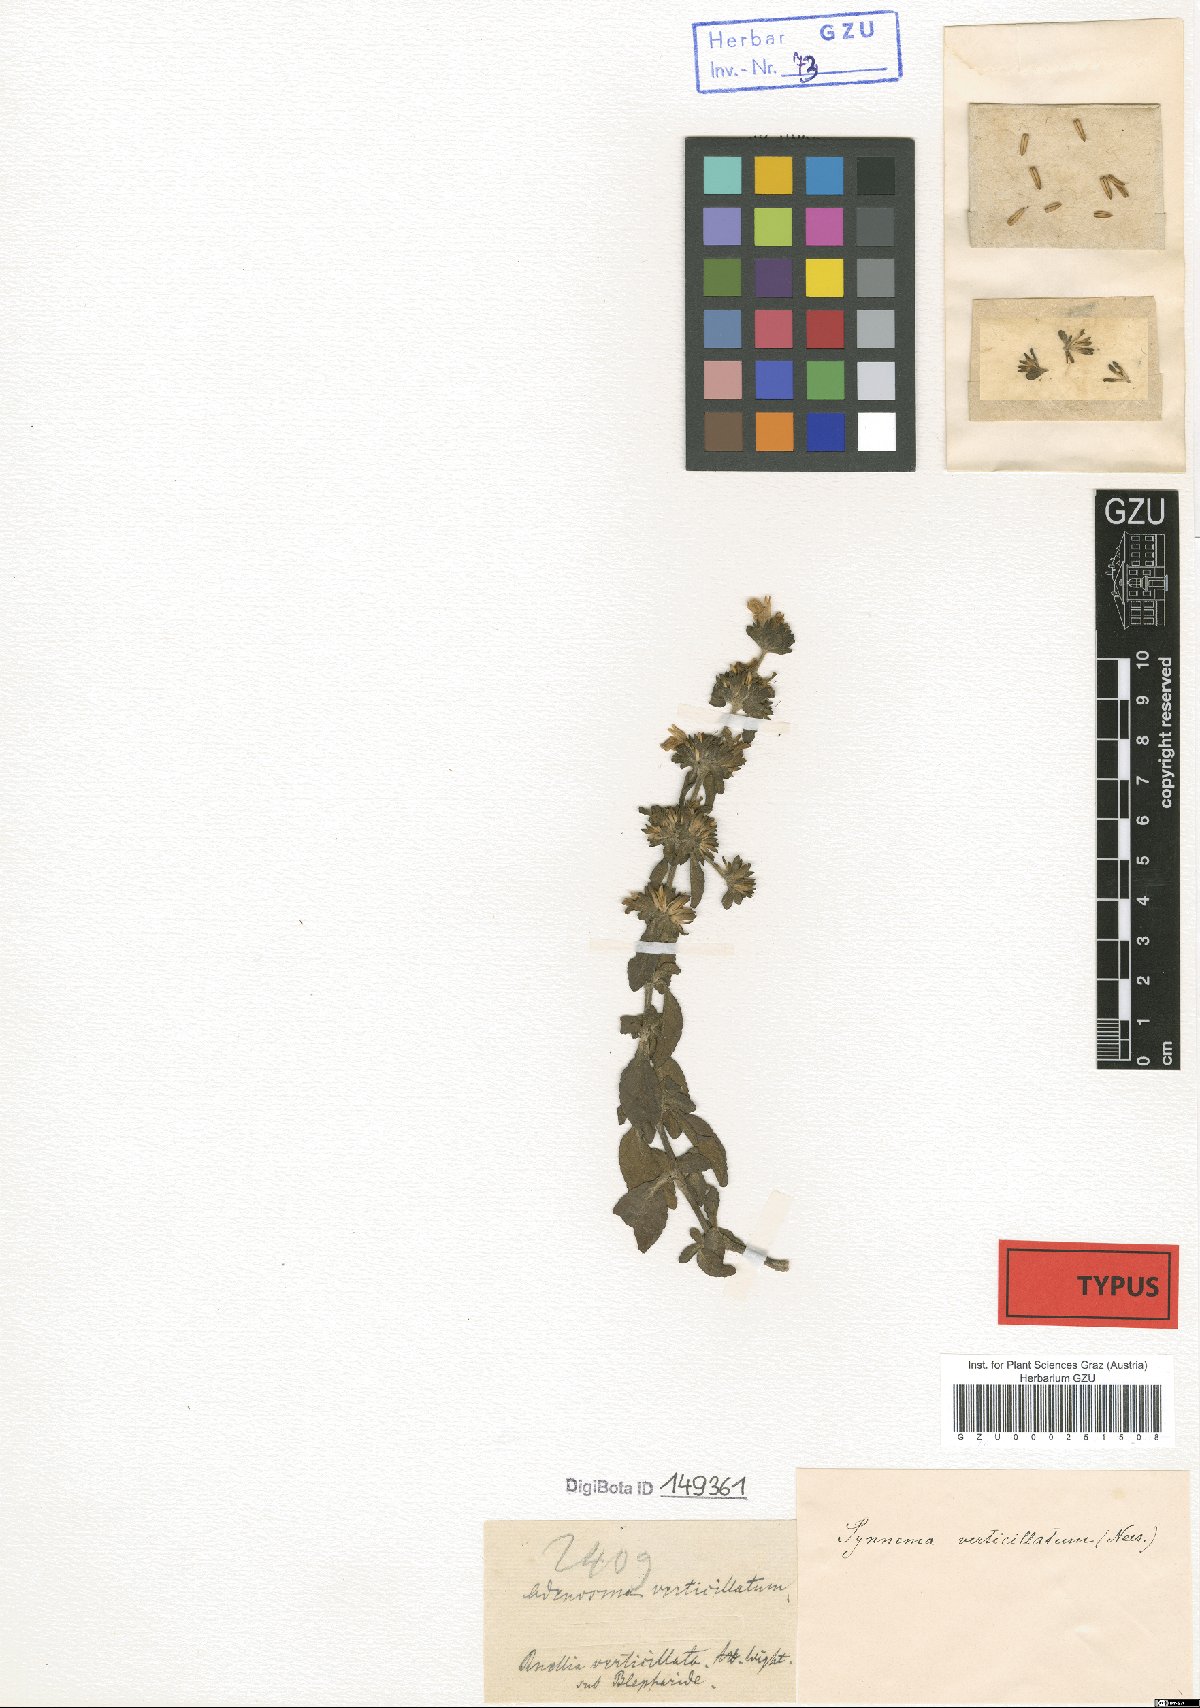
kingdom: Plantae
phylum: Tracheophyta
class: Magnoliopsida
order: Lamiales
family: Acanthaceae
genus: Hygrophila
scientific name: Hygrophila balsamica
